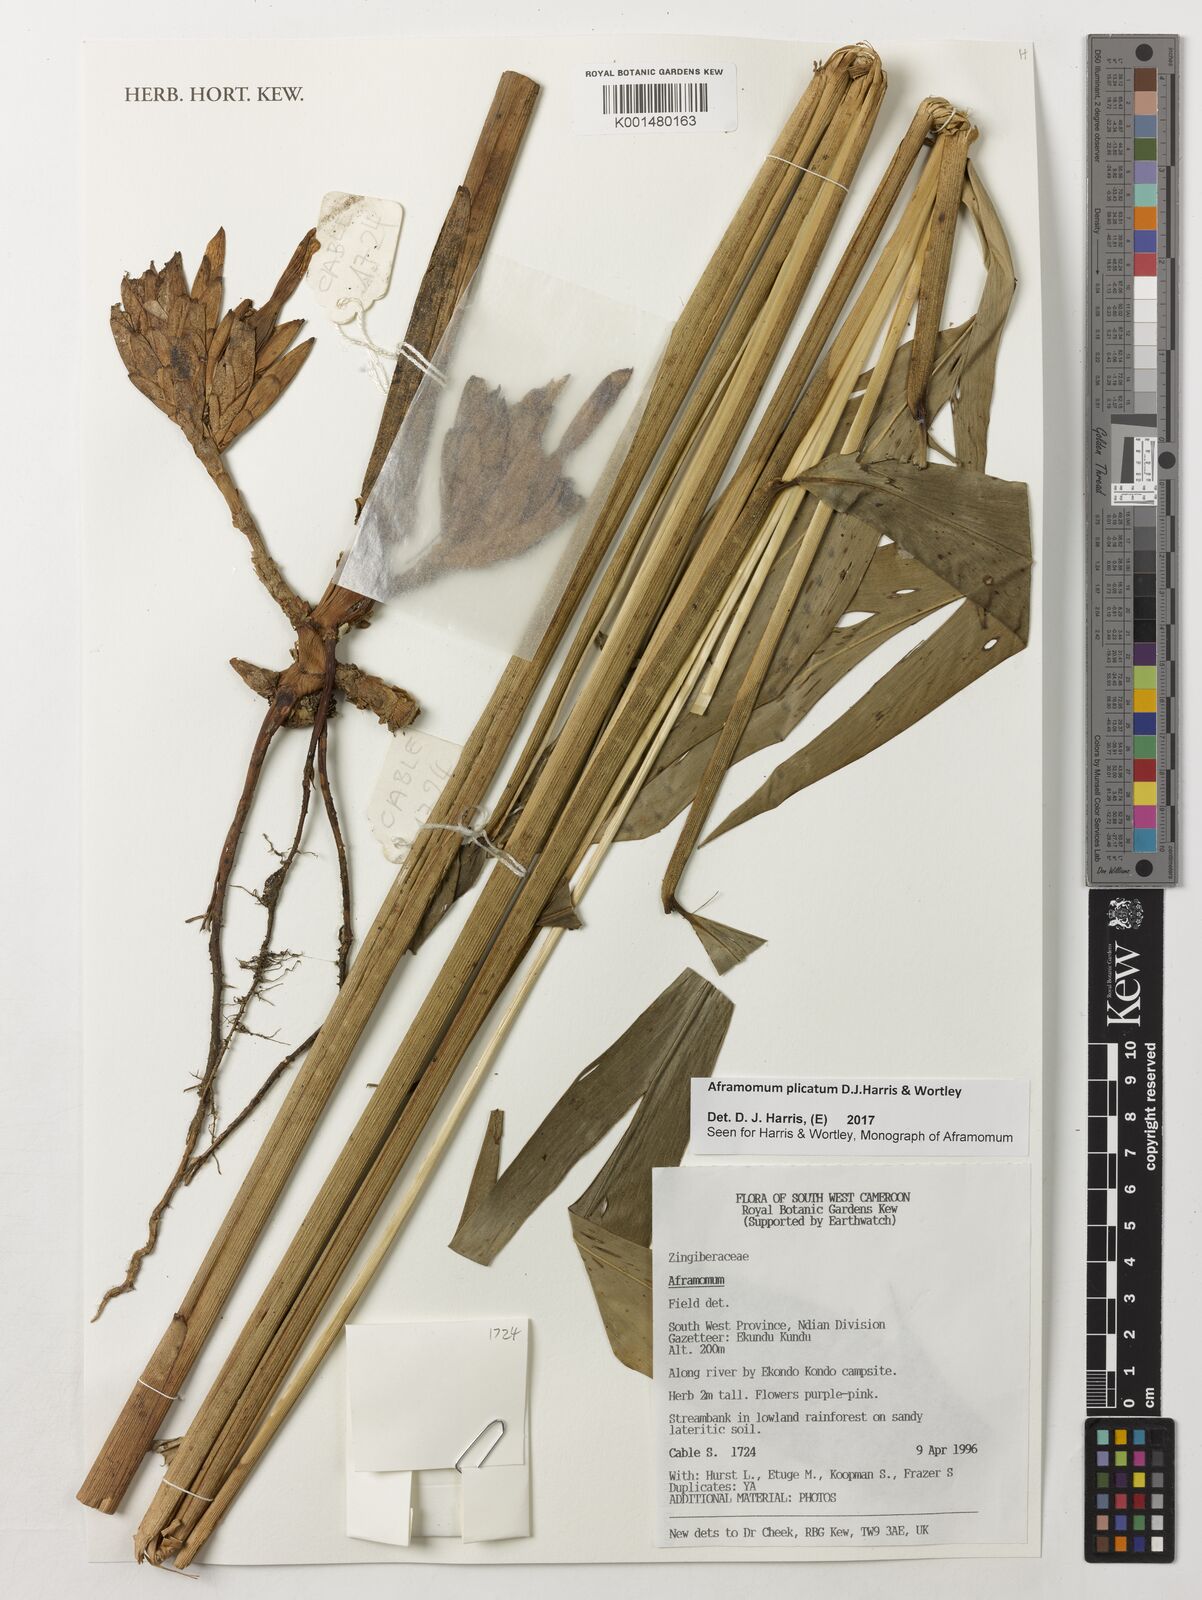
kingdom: Plantae
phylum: Tracheophyta
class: Liliopsida
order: Zingiberales
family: Zingiberaceae
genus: Aframomum
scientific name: Aframomum plicatum
